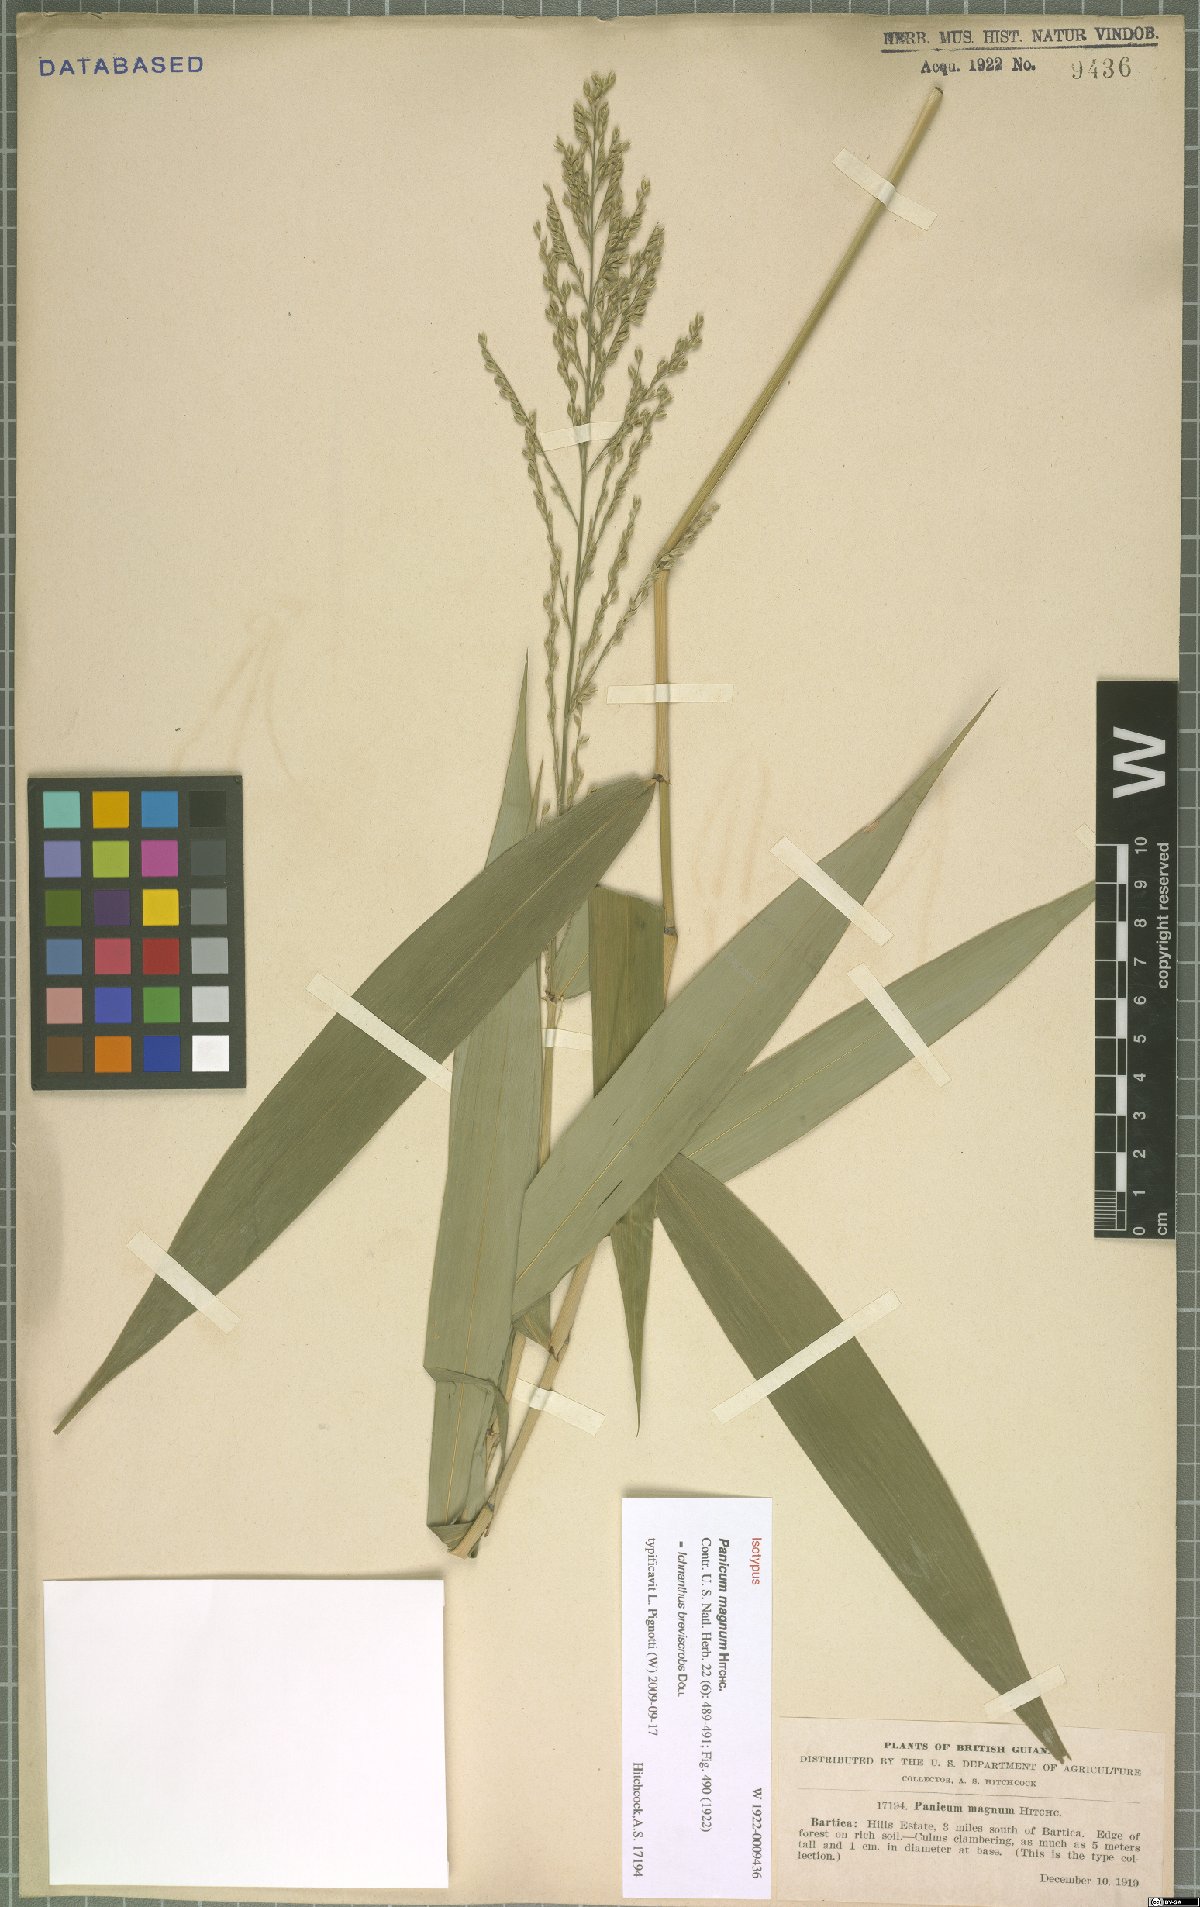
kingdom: Plantae
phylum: Tracheophyta
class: Liliopsida
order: Poales
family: Poaceae
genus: Ichnanthus
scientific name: Ichnanthus breviscrobs
